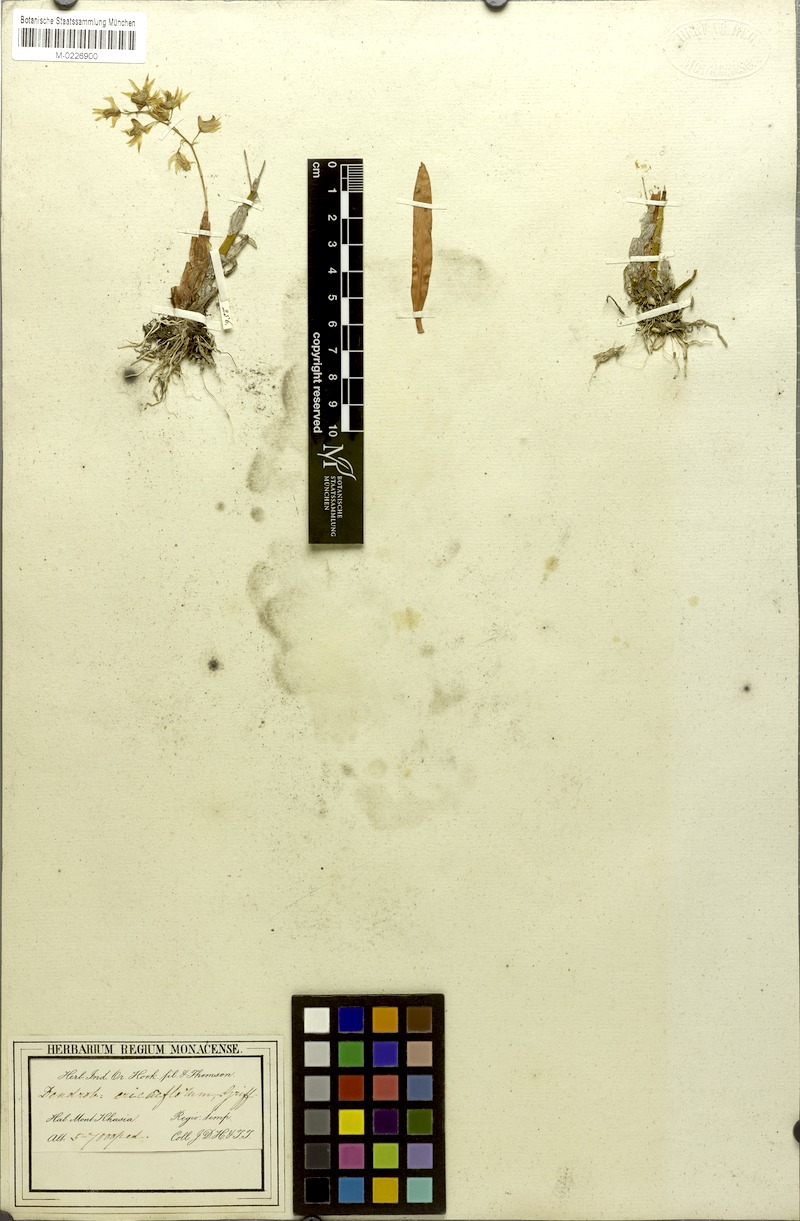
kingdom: Plantae
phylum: Tracheophyta
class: Liliopsida
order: Asparagales
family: Orchidaceae
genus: Dendrobium
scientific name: Dendrobium eriiflorum
